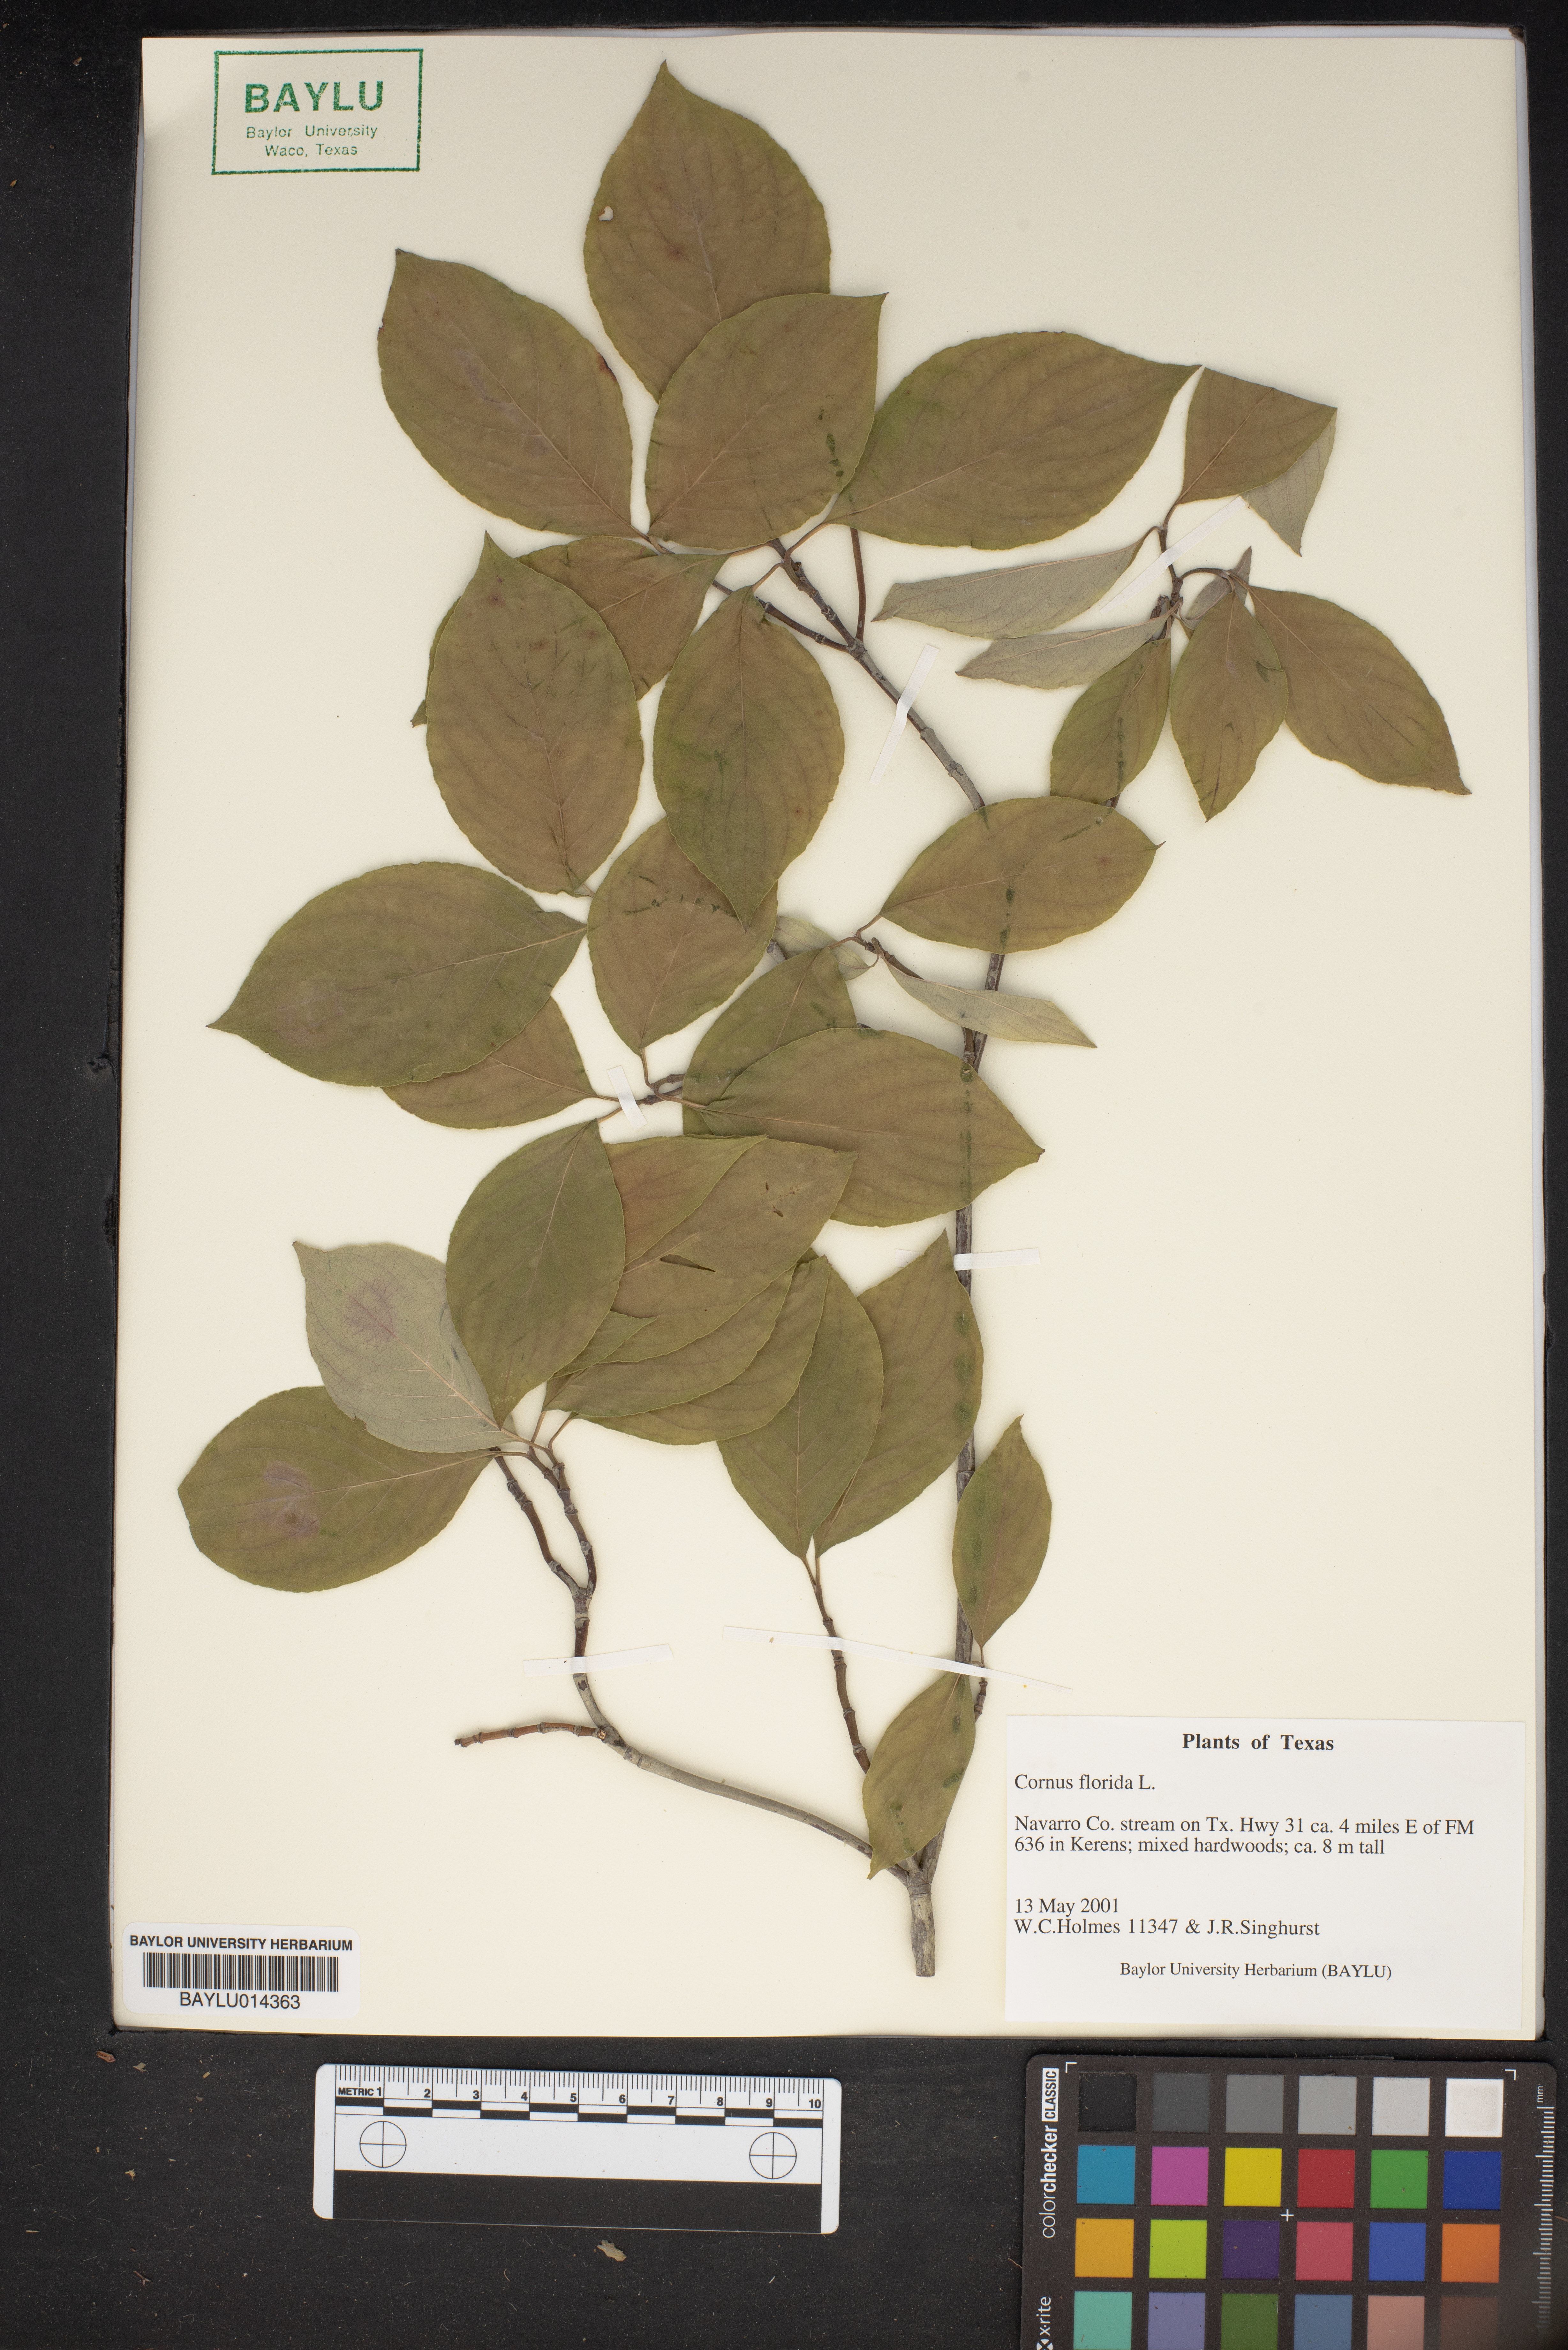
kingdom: Plantae
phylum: Tracheophyta
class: Magnoliopsida
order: Cornales
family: Cornaceae
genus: Cornus
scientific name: Cornus florida
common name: Flowering dogwood
